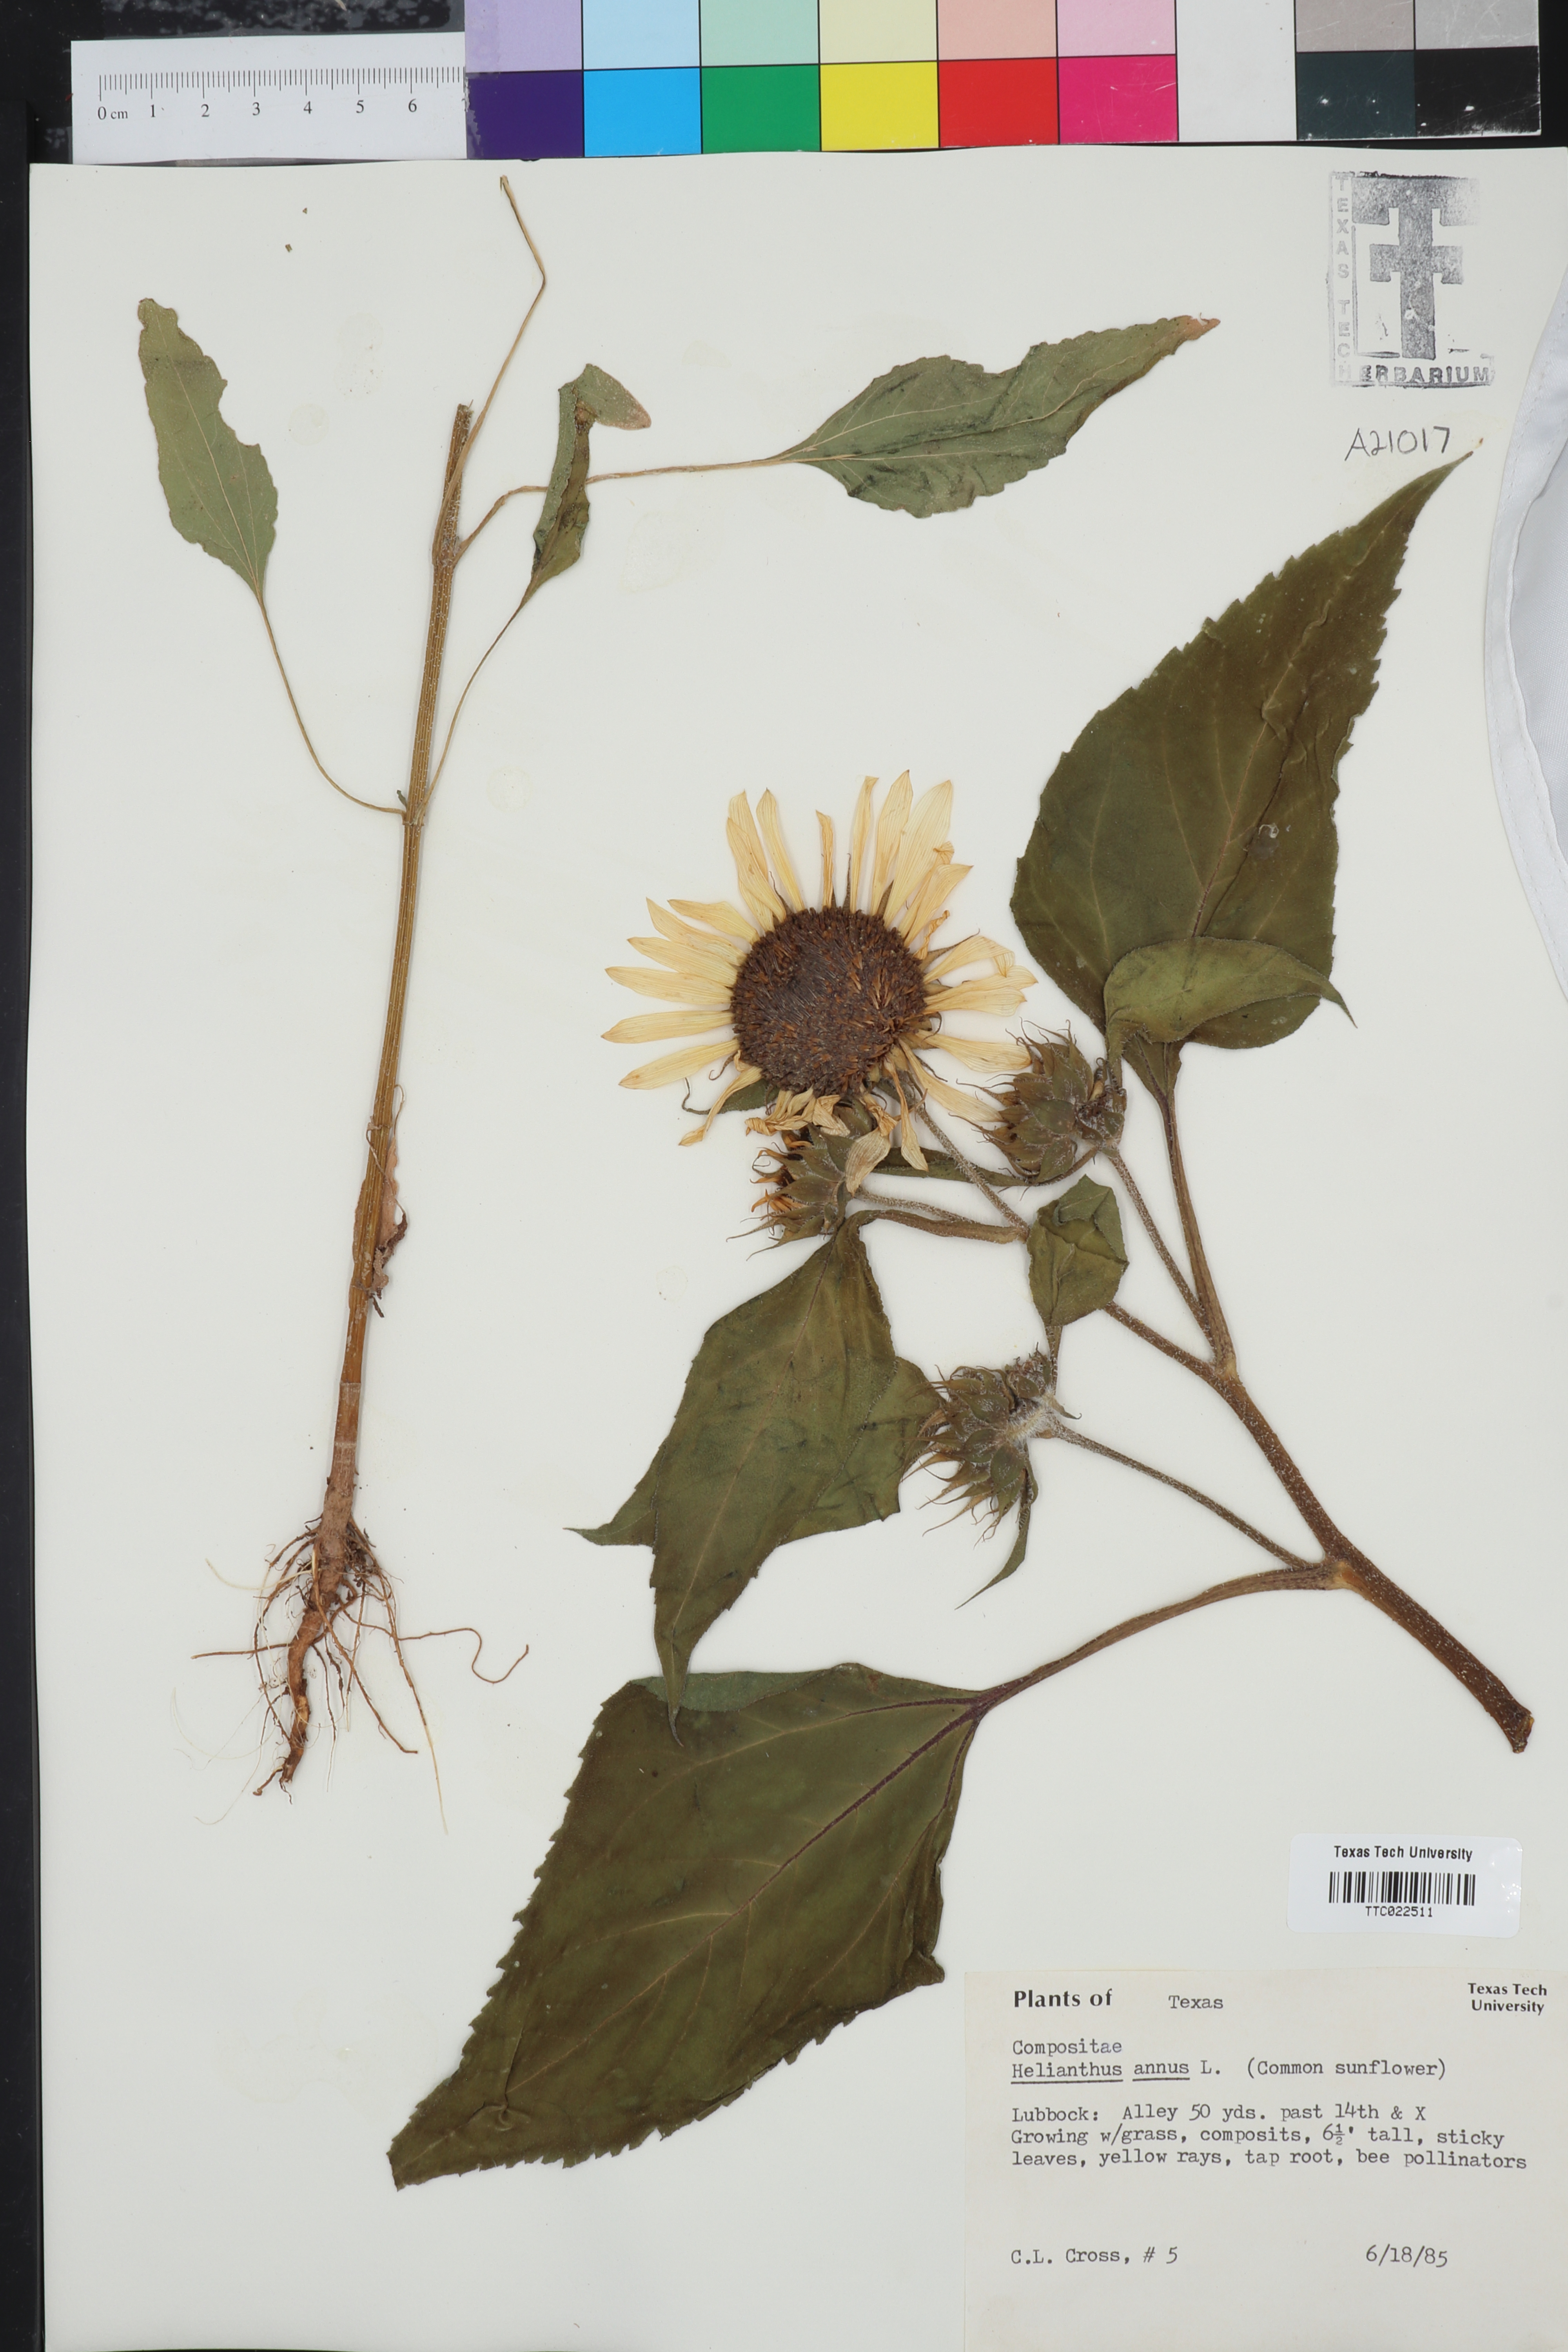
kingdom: Plantae
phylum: Tracheophyta
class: Magnoliopsida
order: Asterales
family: Asteraceae
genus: Helianthus
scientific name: Helianthus annuus
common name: Sunflower
